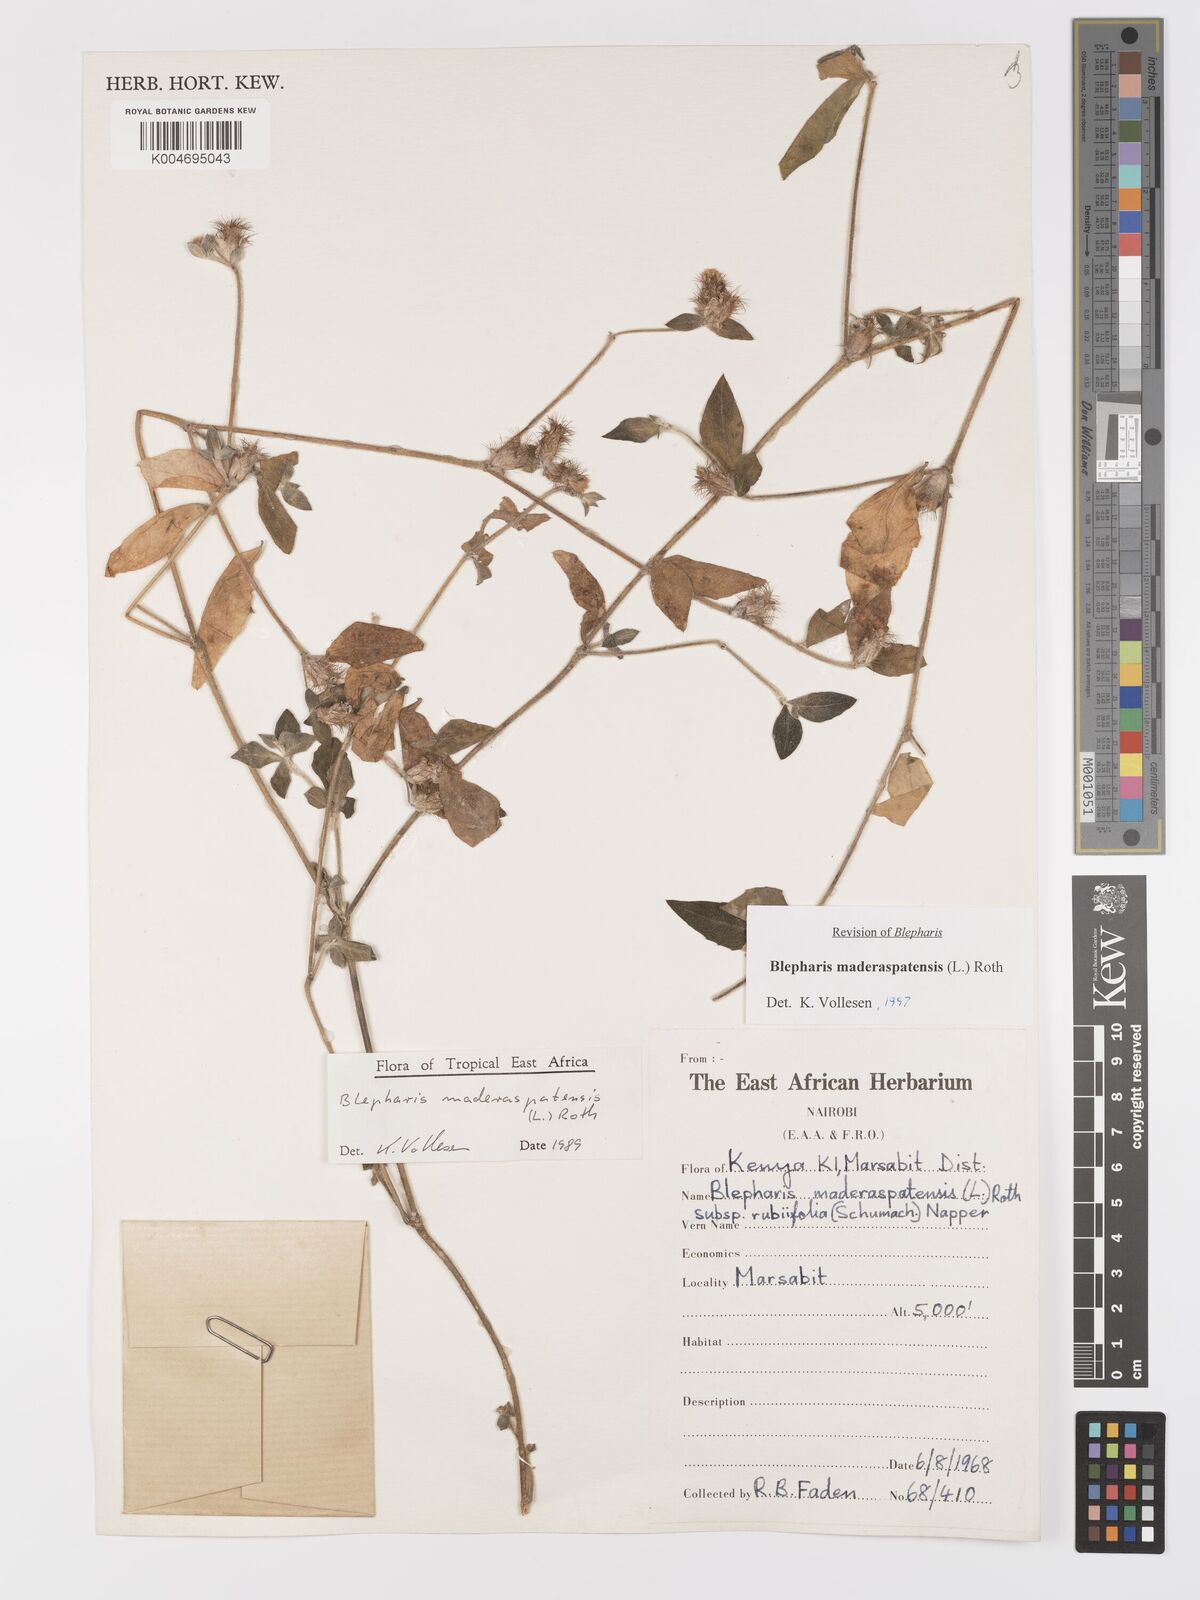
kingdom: Plantae
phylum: Tracheophyta
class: Magnoliopsida
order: Lamiales
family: Acanthaceae
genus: Blepharis
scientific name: Blepharis maderaspatensis
